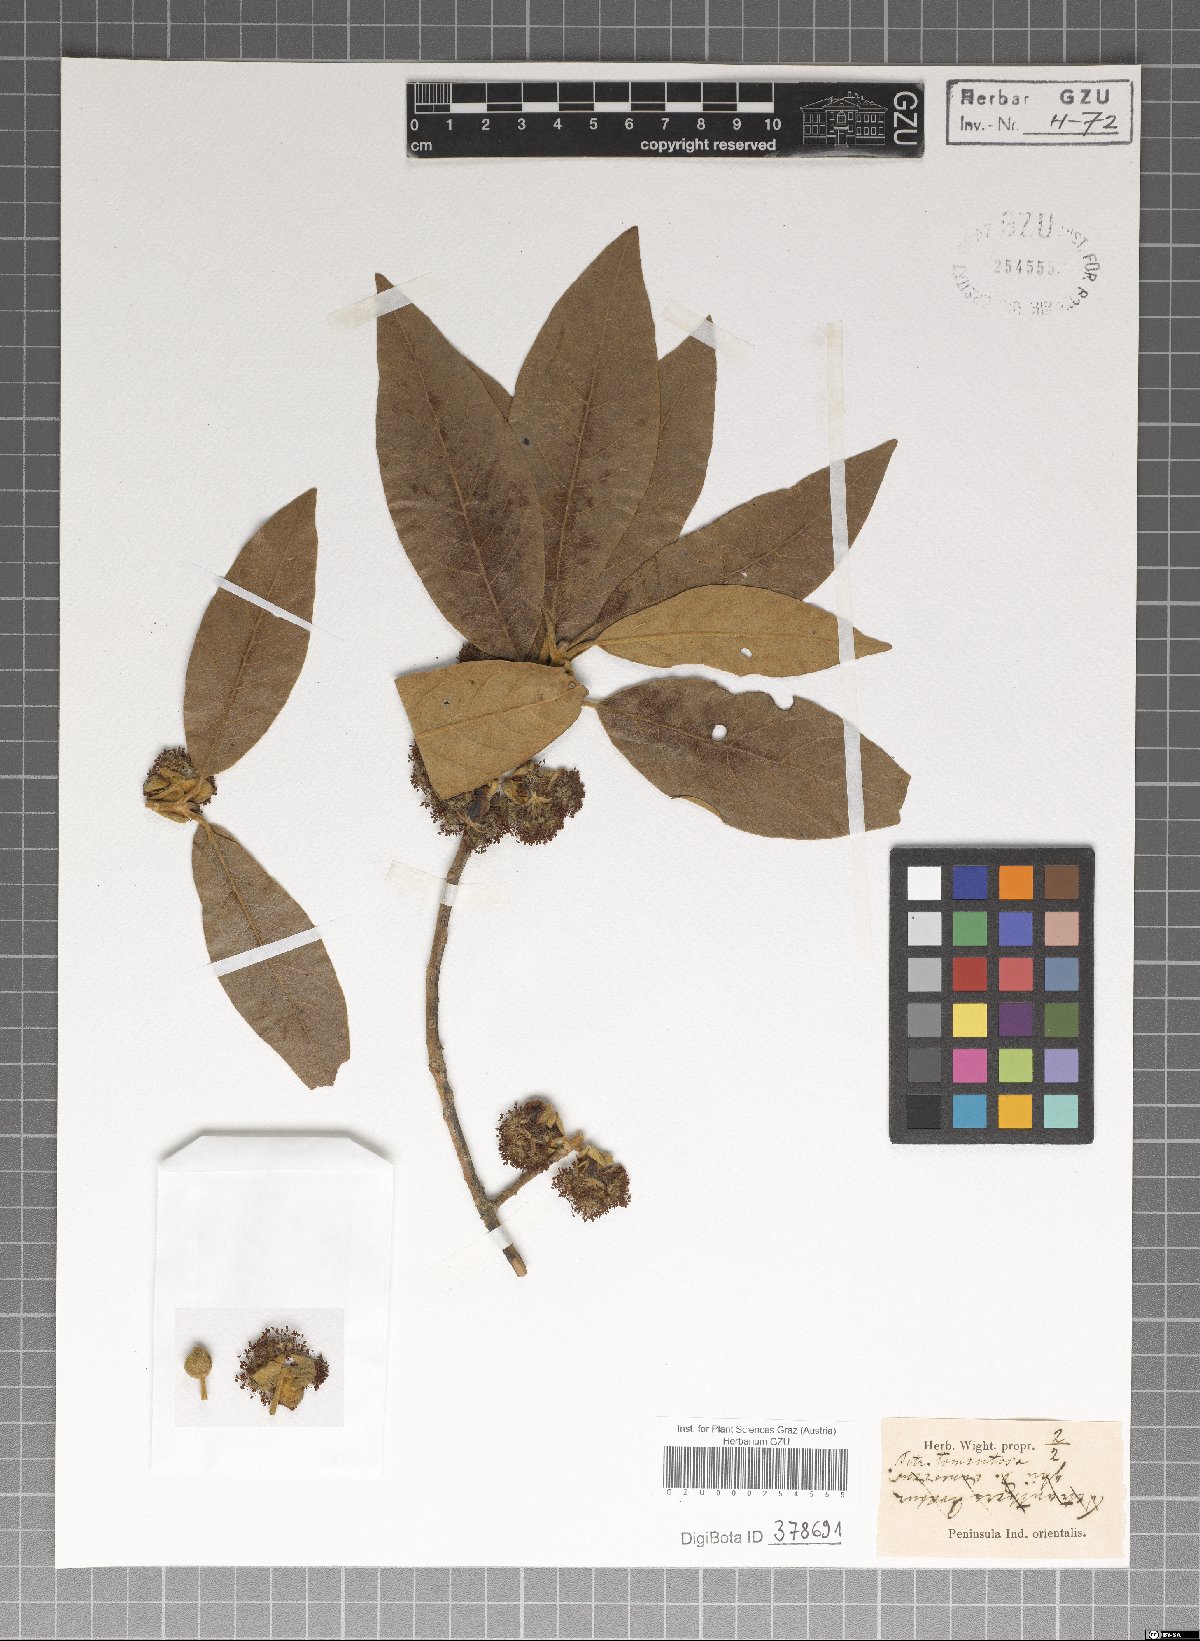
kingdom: Plantae
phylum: Tracheophyta
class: Magnoliopsida
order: Laurales
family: Lauraceae
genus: Litsea
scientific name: Litsea glutinosa
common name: Indian-laurel
